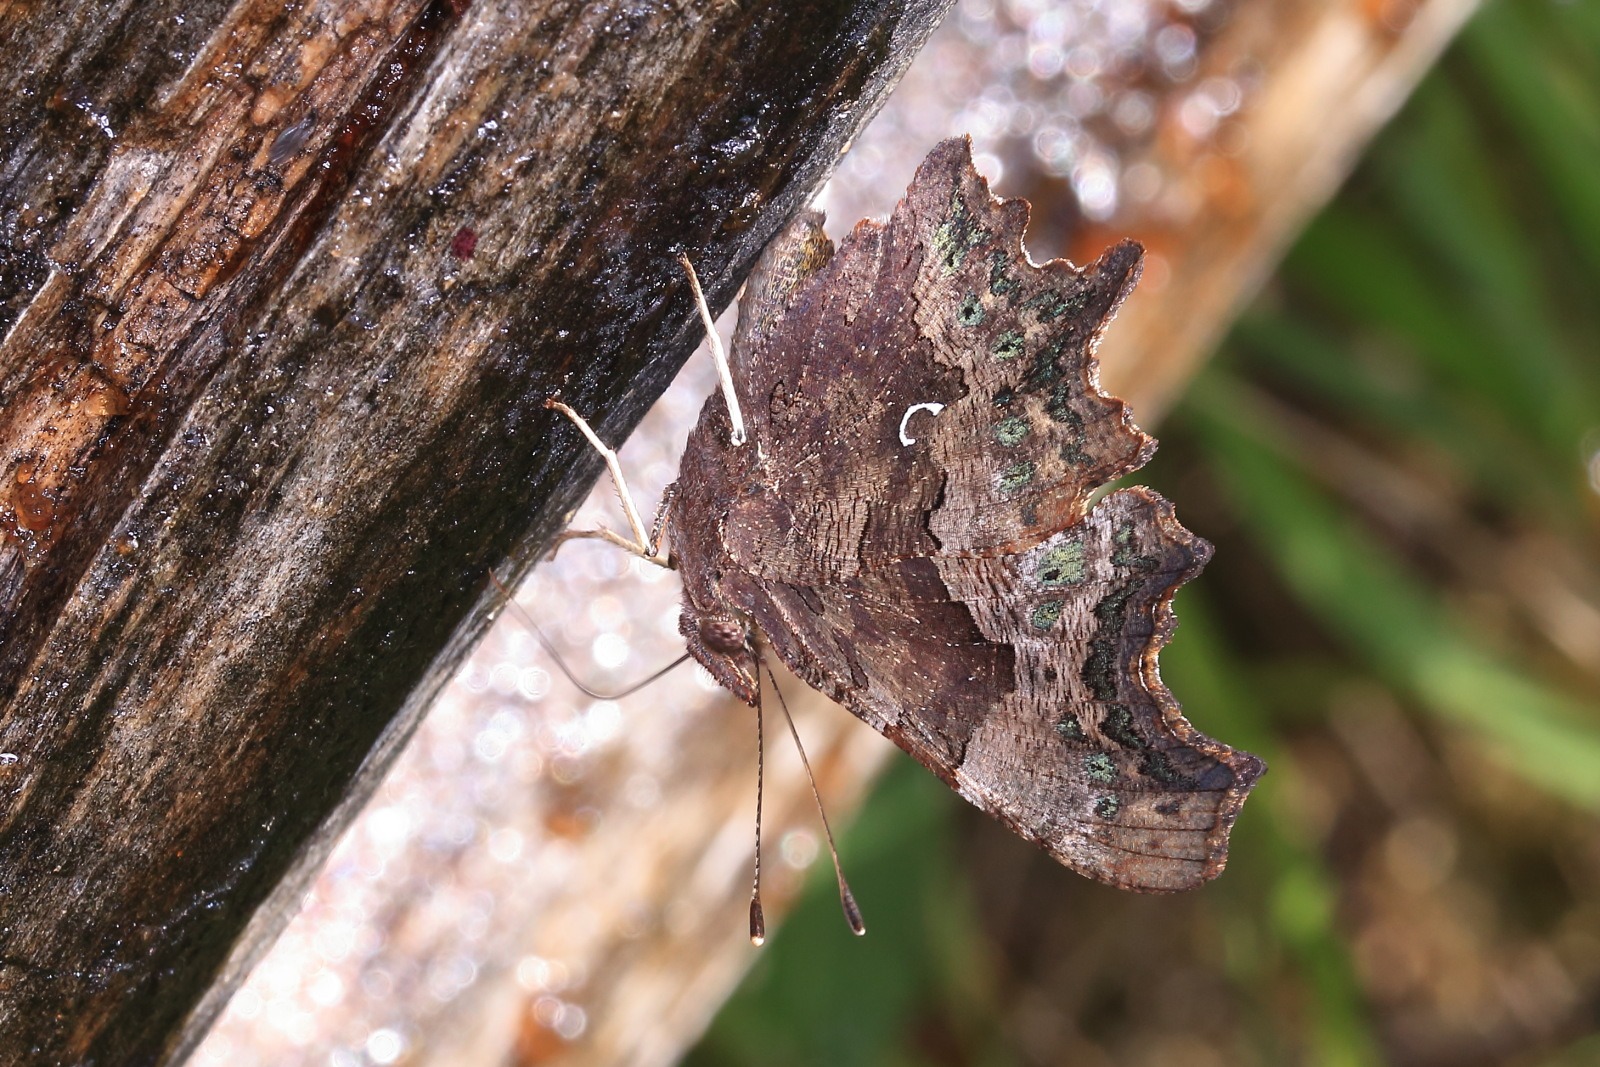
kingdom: Animalia
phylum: Arthropoda
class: Insecta
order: Lepidoptera
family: Nymphalidae
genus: Polygonia
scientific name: Polygonia c-album
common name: Det hvide C
